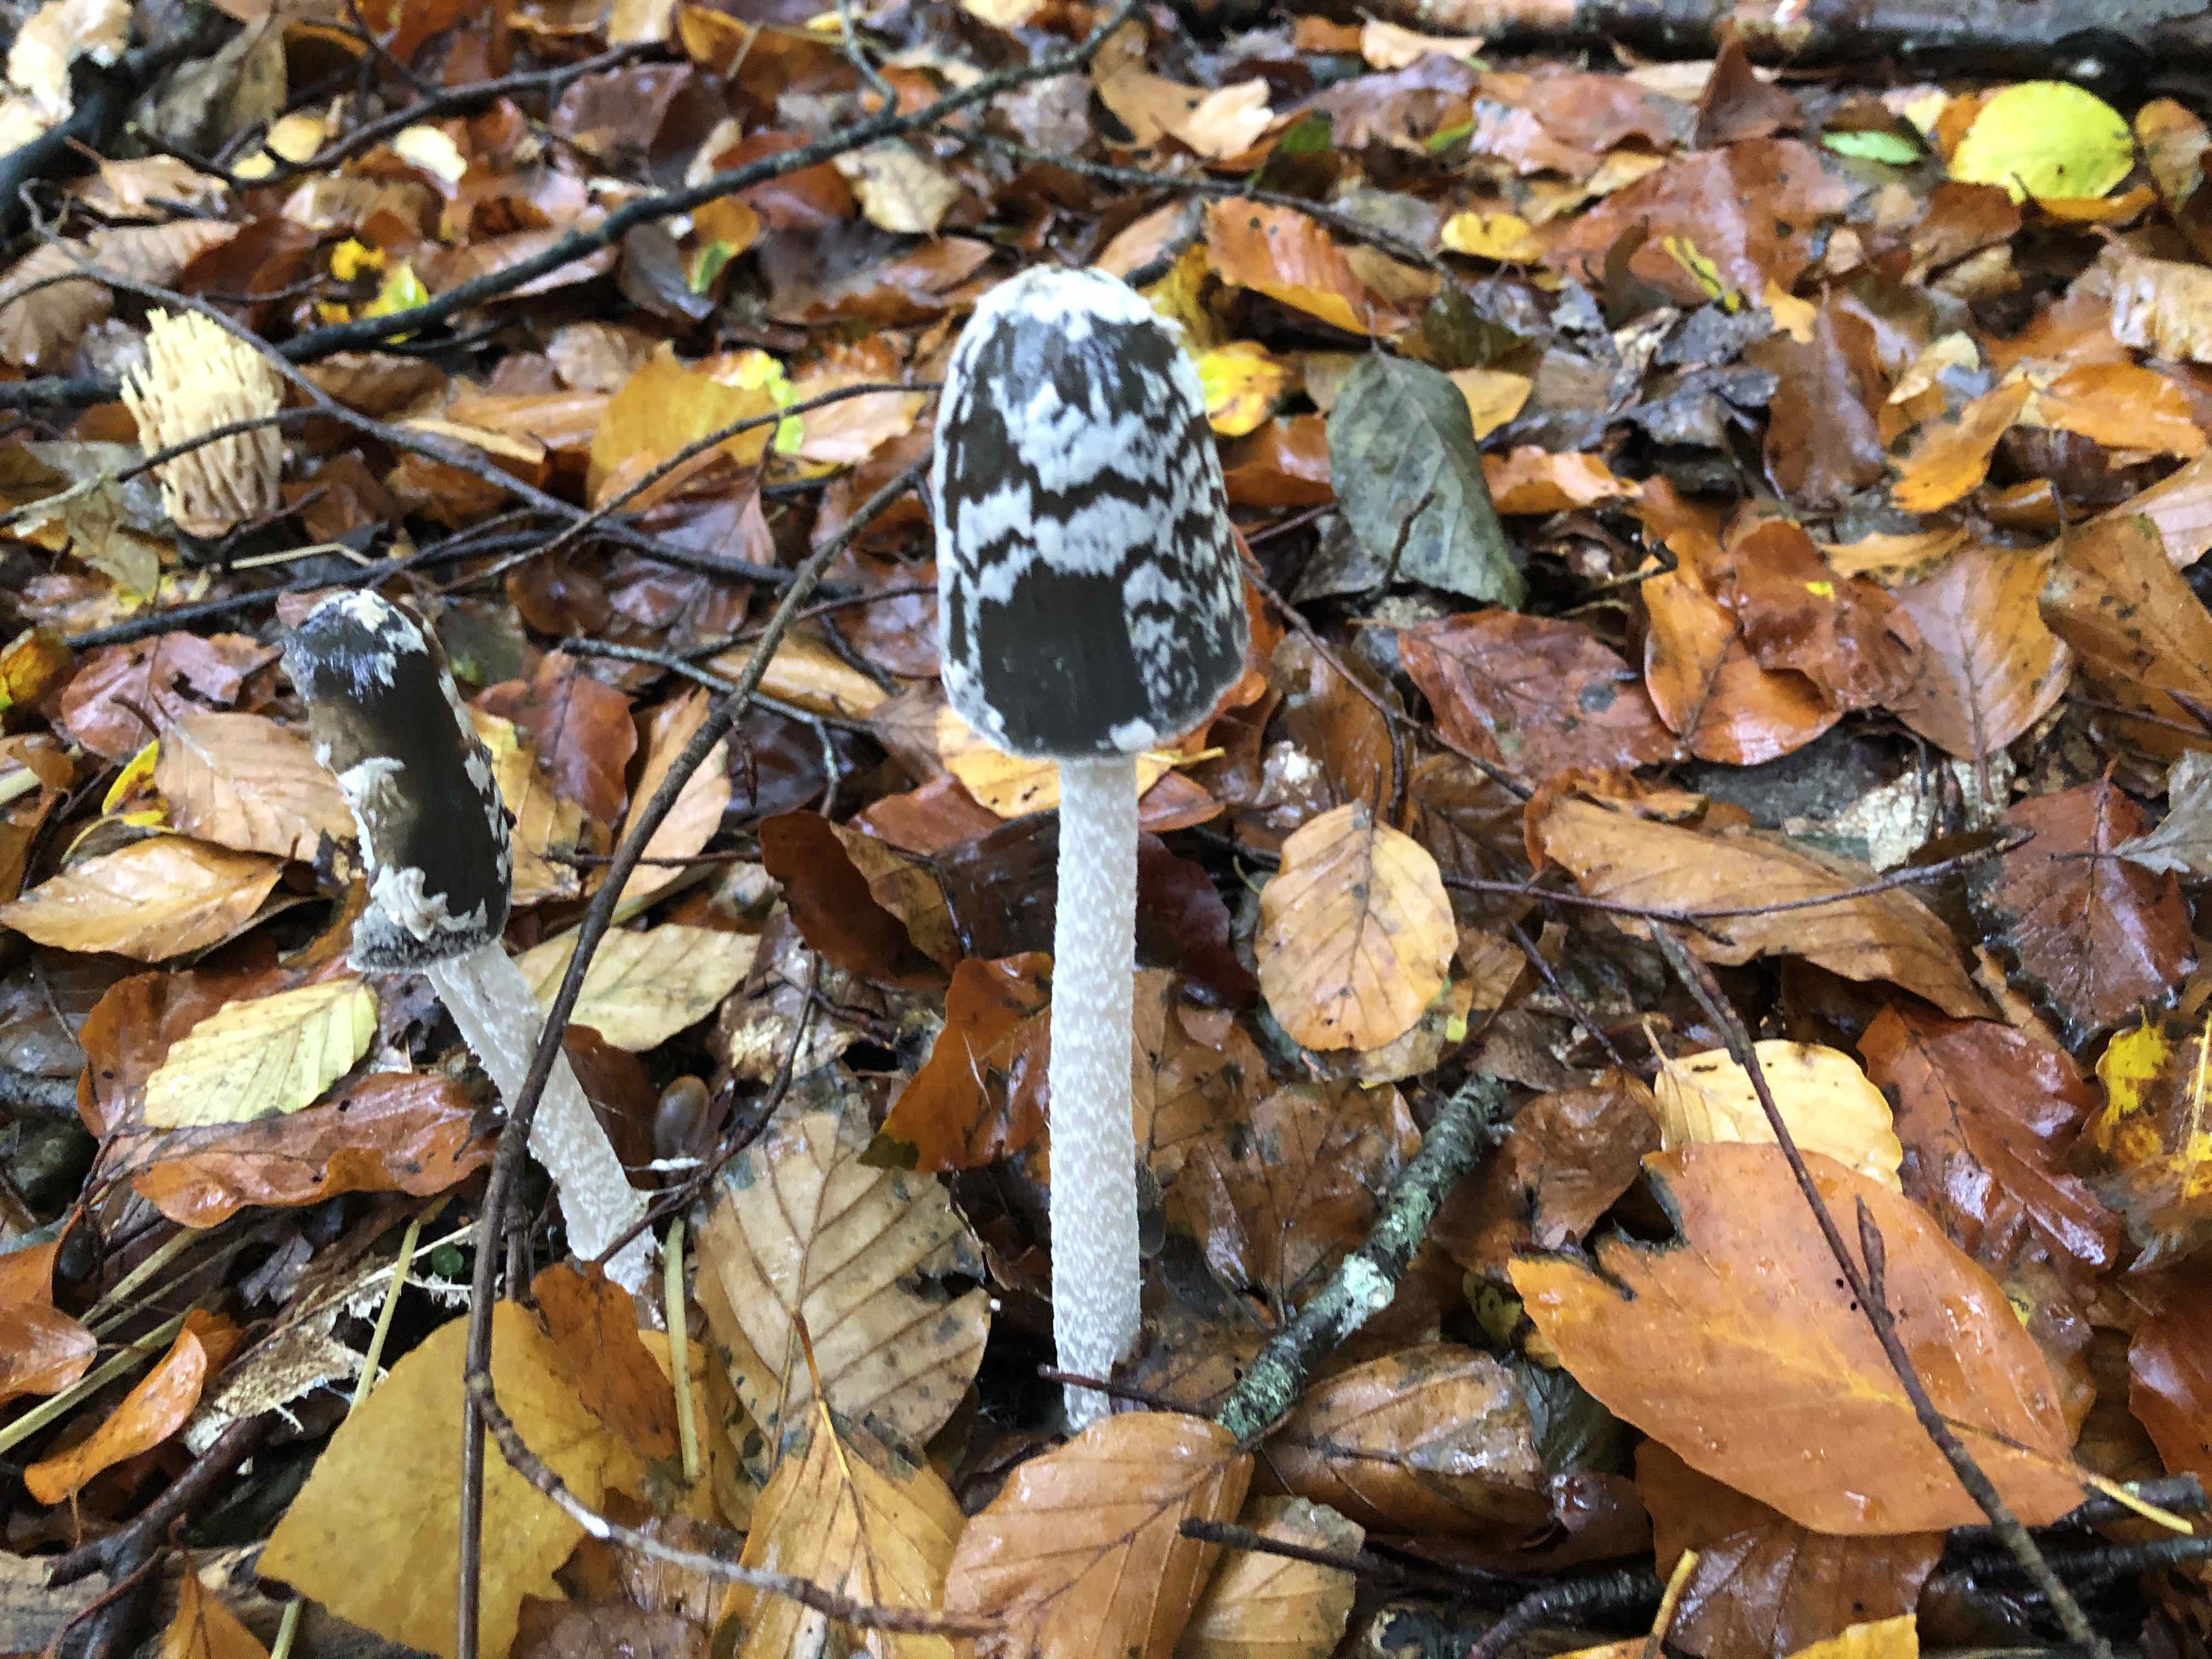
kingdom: Fungi
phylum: Basidiomycota
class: Agaricomycetes
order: Agaricales
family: Psathyrellaceae
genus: Coprinopsis
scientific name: Coprinopsis picacea
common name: skade-blækhat
